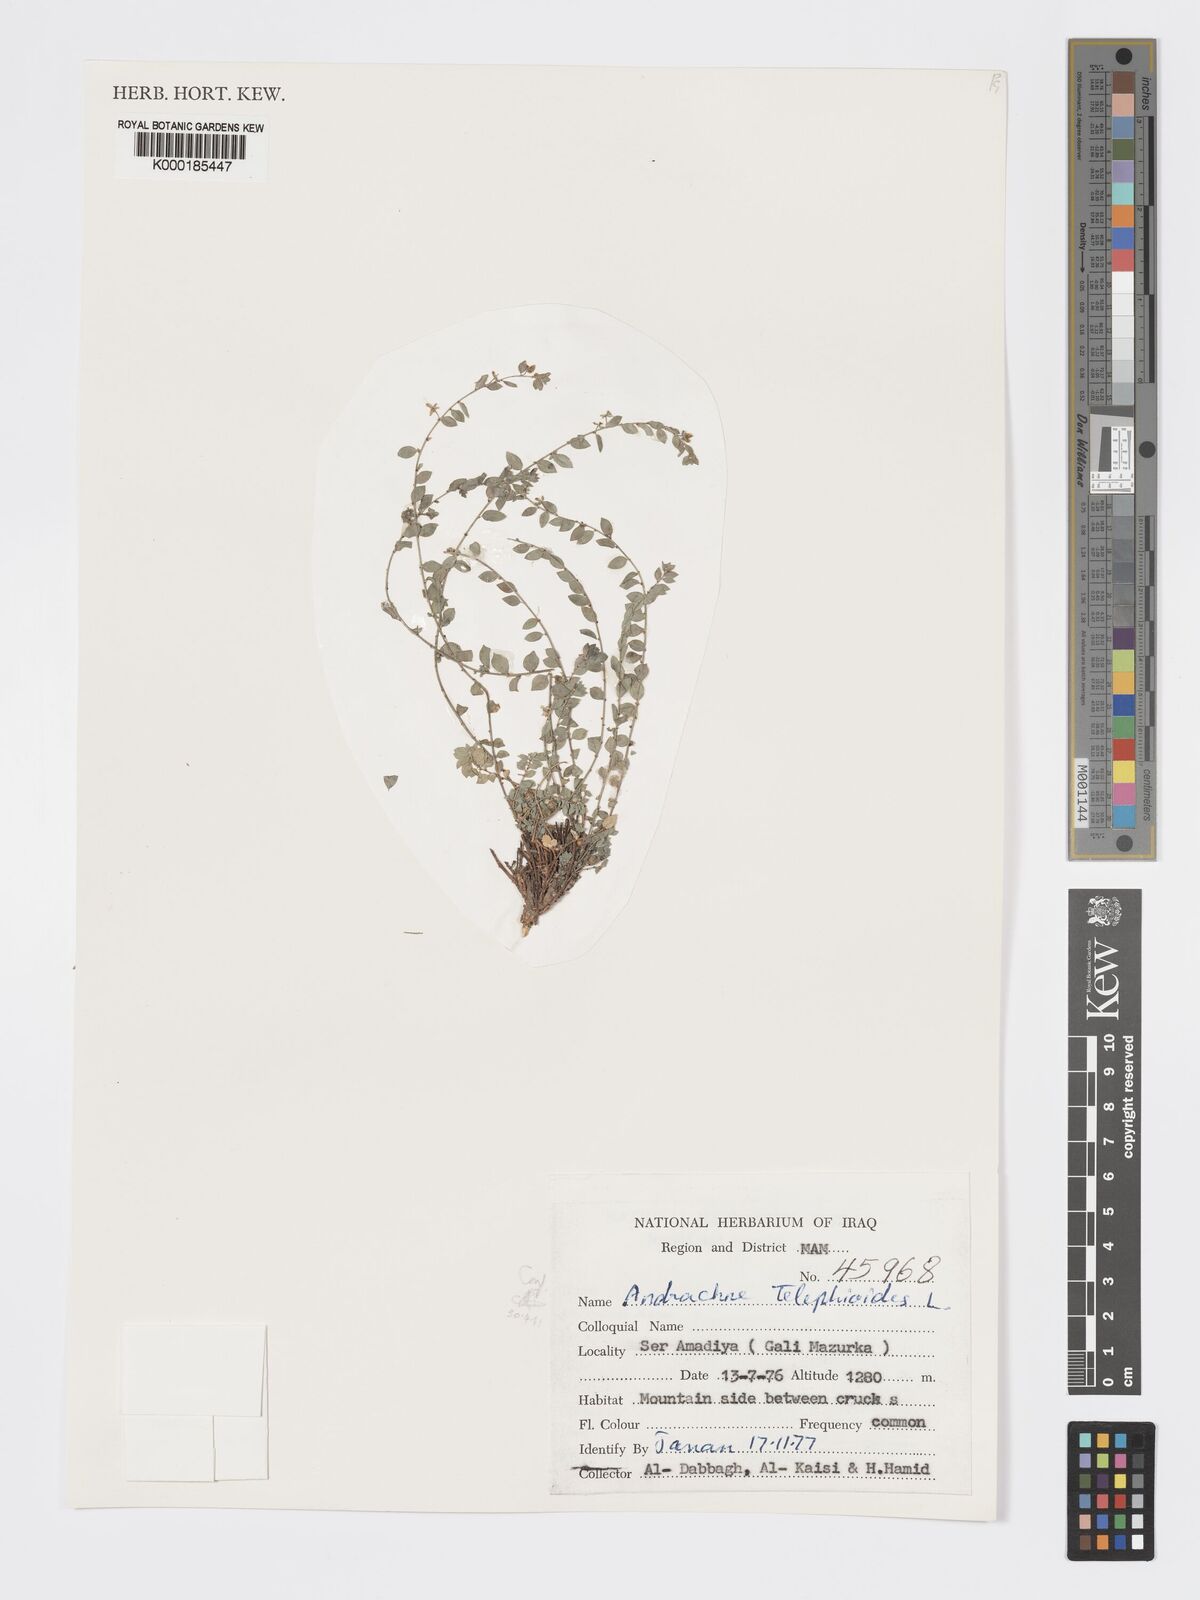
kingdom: Plantae
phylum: Tracheophyta
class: Magnoliopsida
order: Malpighiales
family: Phyllanthaceae
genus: Andrachne
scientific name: Andrachne telephioides
